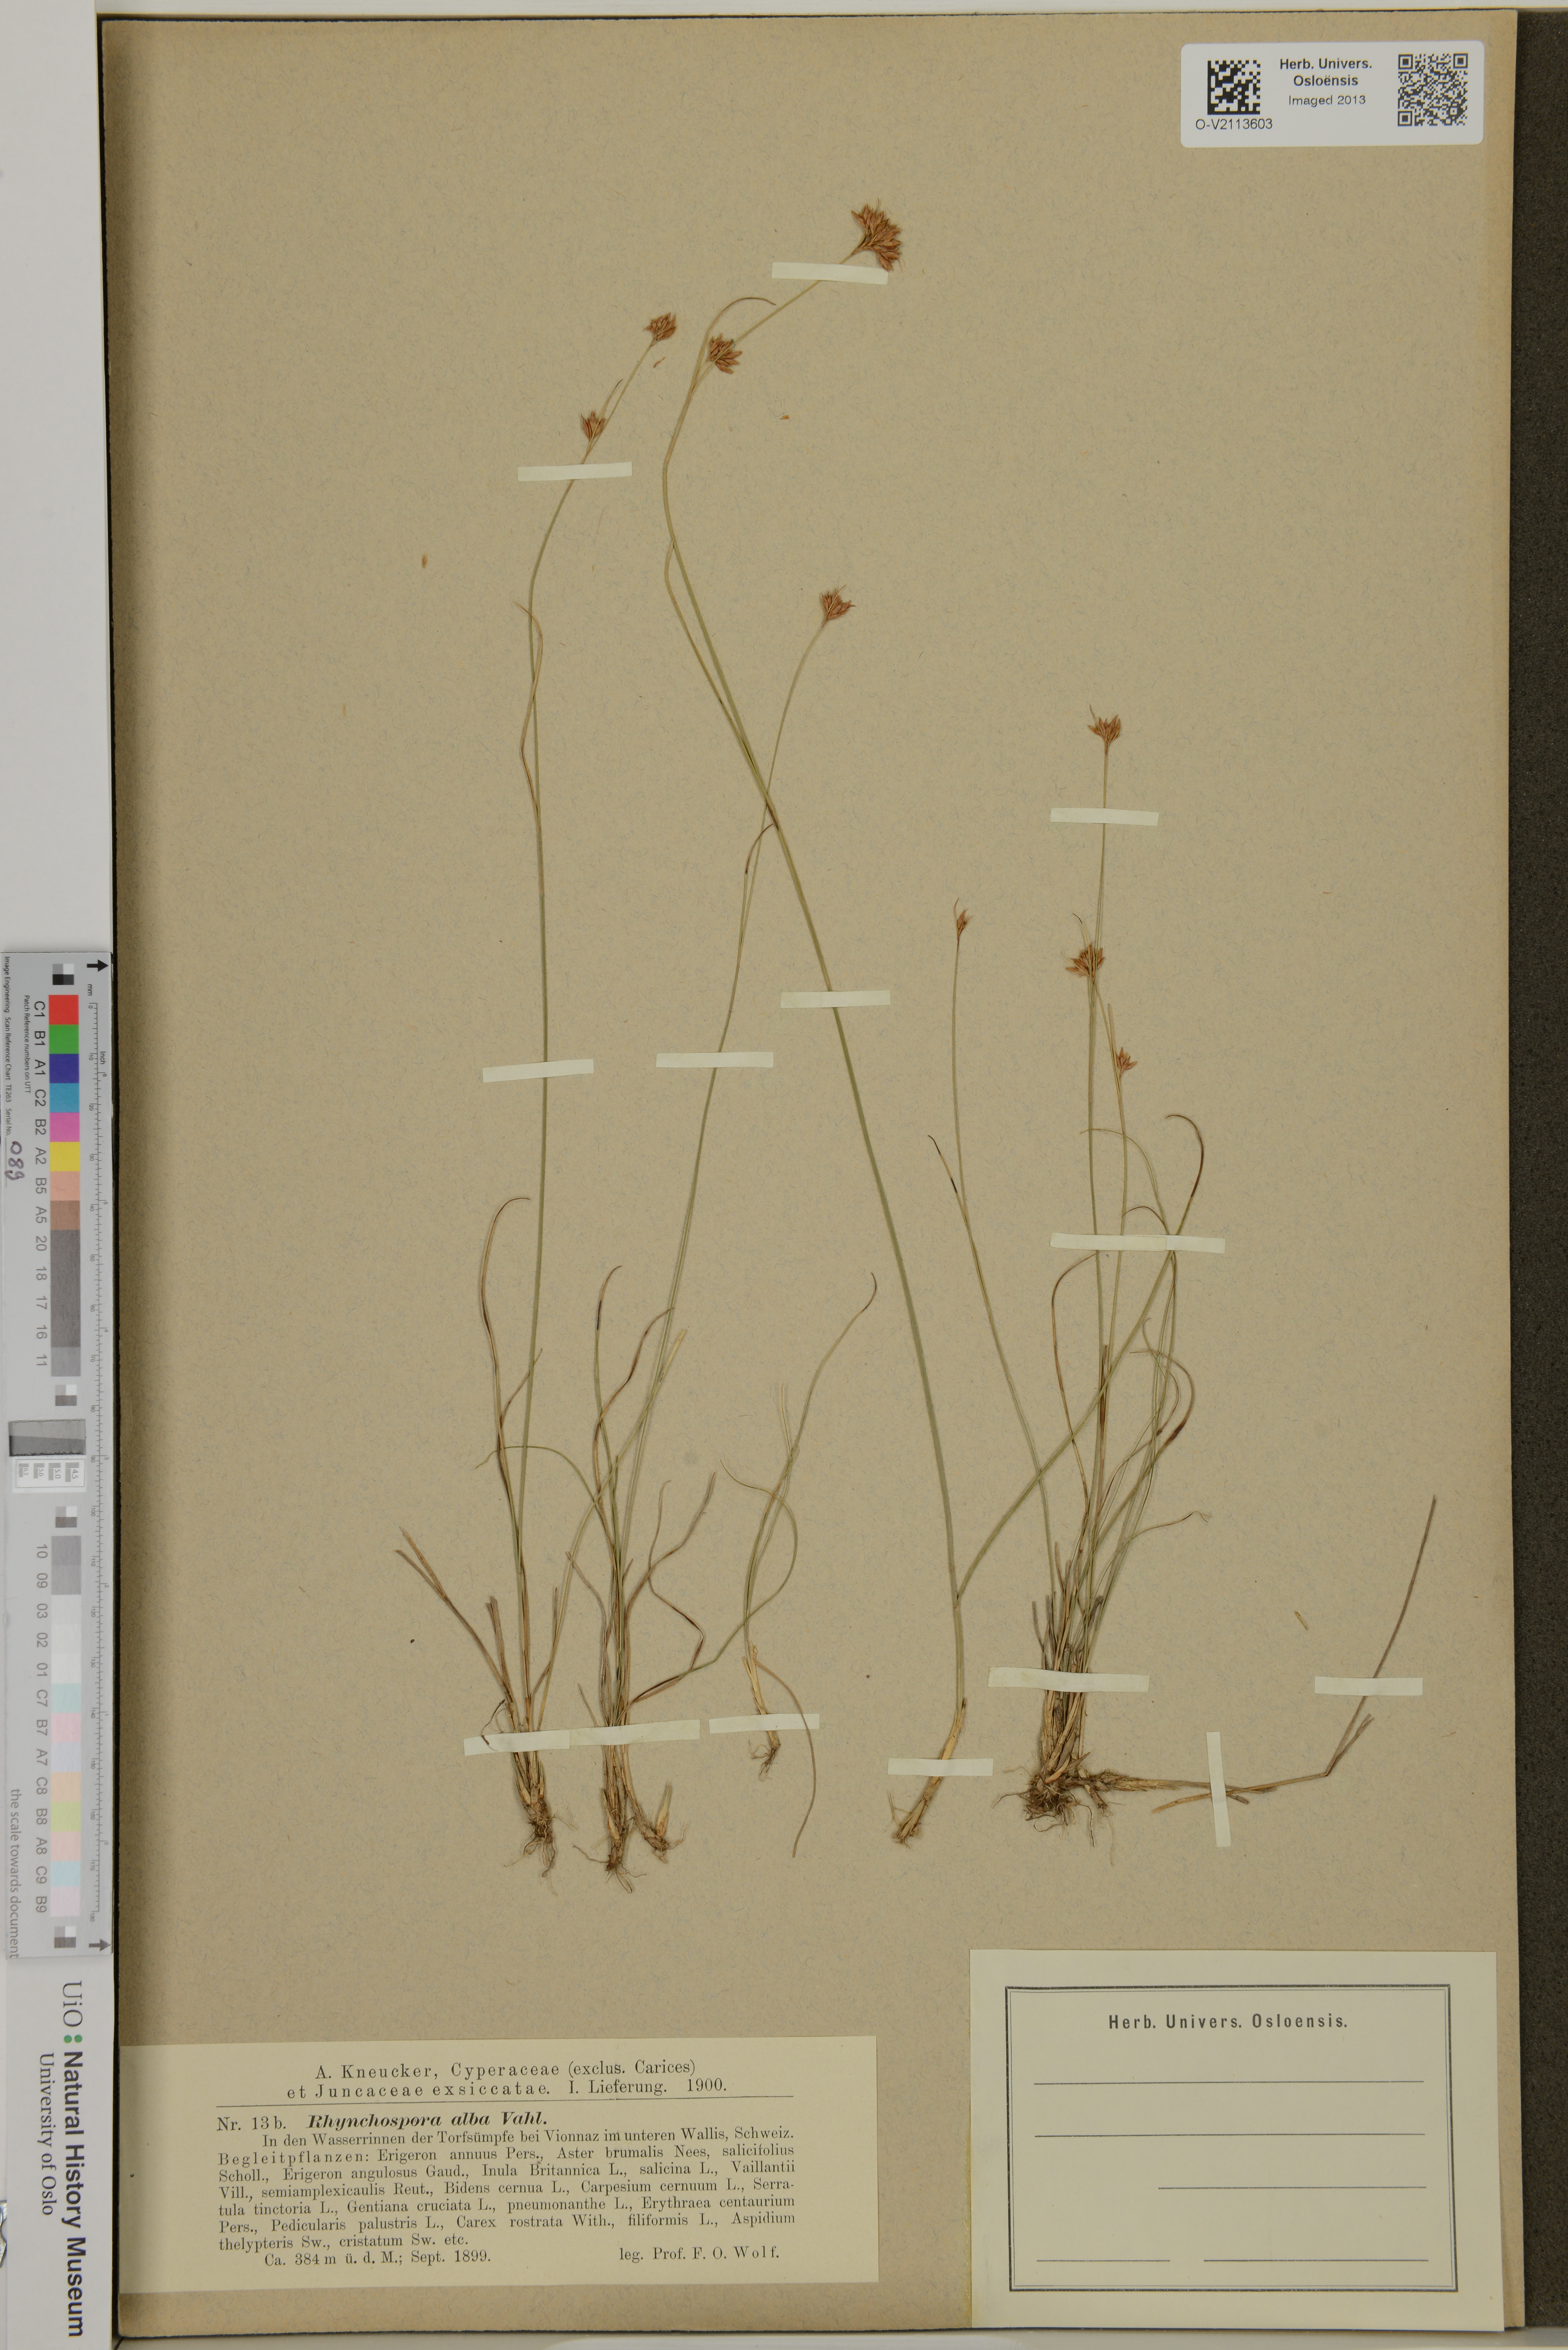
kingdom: Plantae
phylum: Tracheophyta
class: Liliopsida
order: Poales
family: Cyperaceae
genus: Rhynchospora
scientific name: Rhynchospora alba
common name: White beak-sedge
